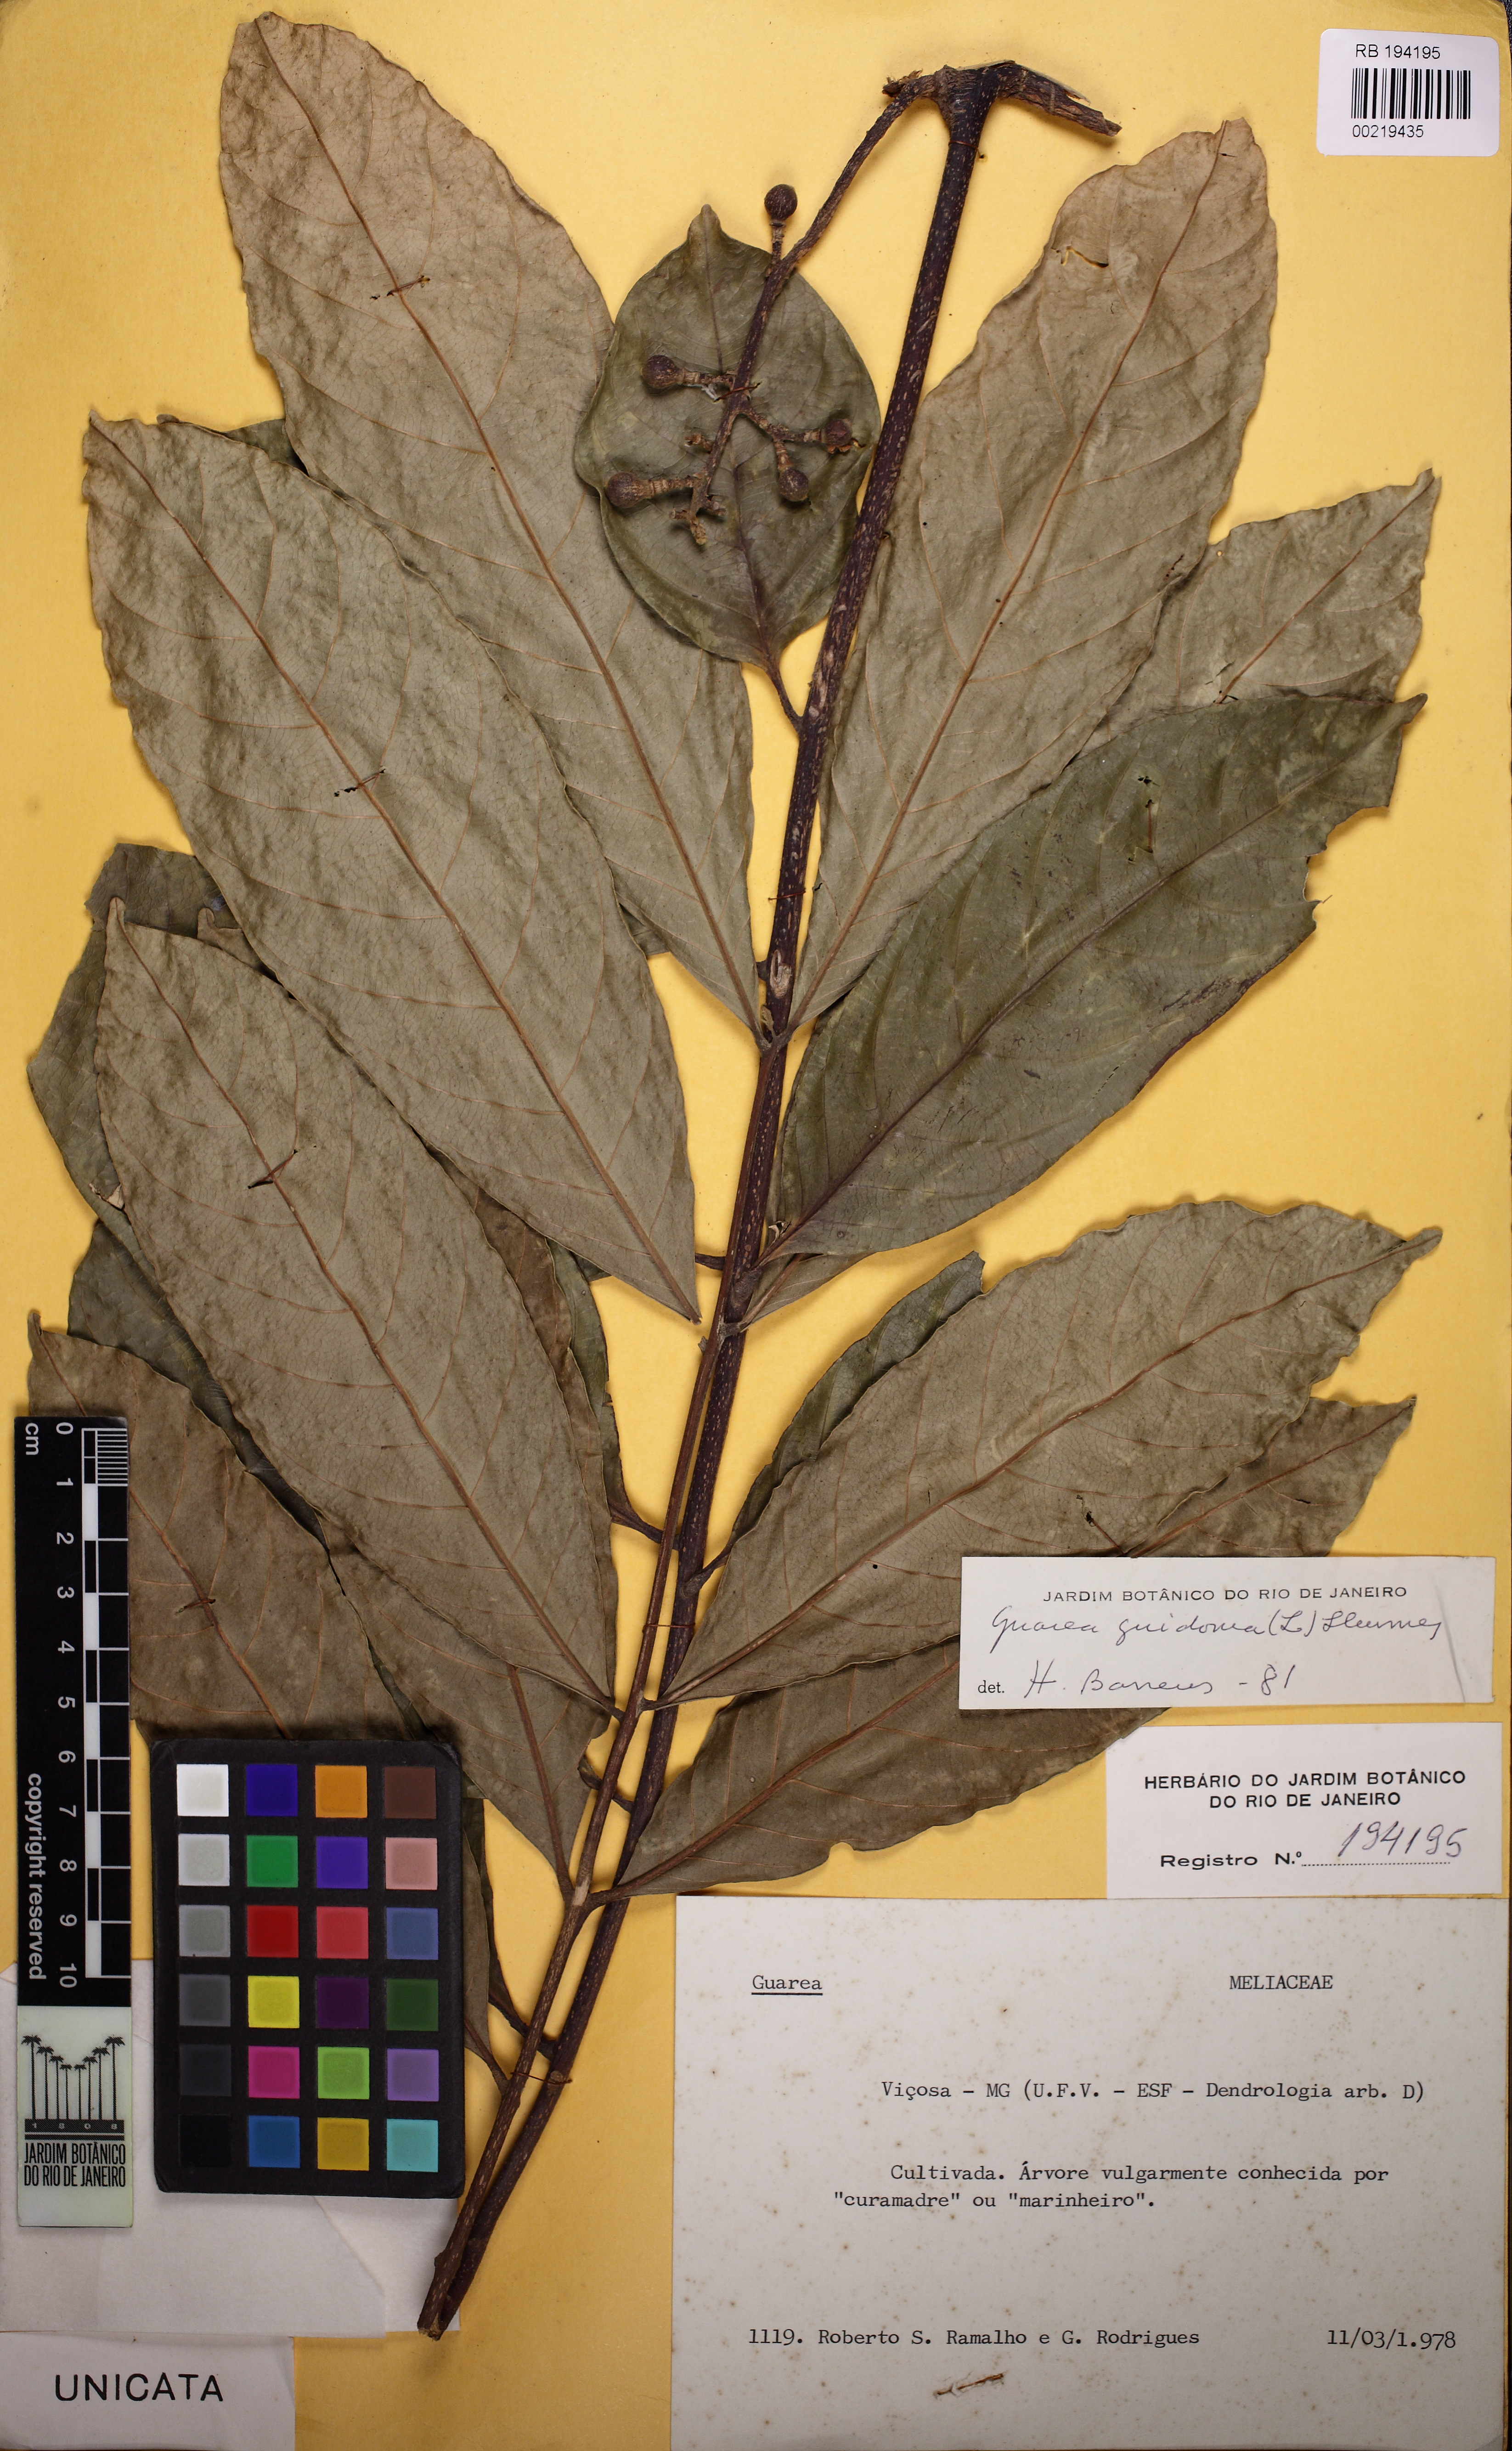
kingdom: Plantae
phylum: Tracheophyta
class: Magnoliopsida
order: Sapindales
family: Meliaceae
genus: Guarea
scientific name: Guarea guidonia
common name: American muskwood
